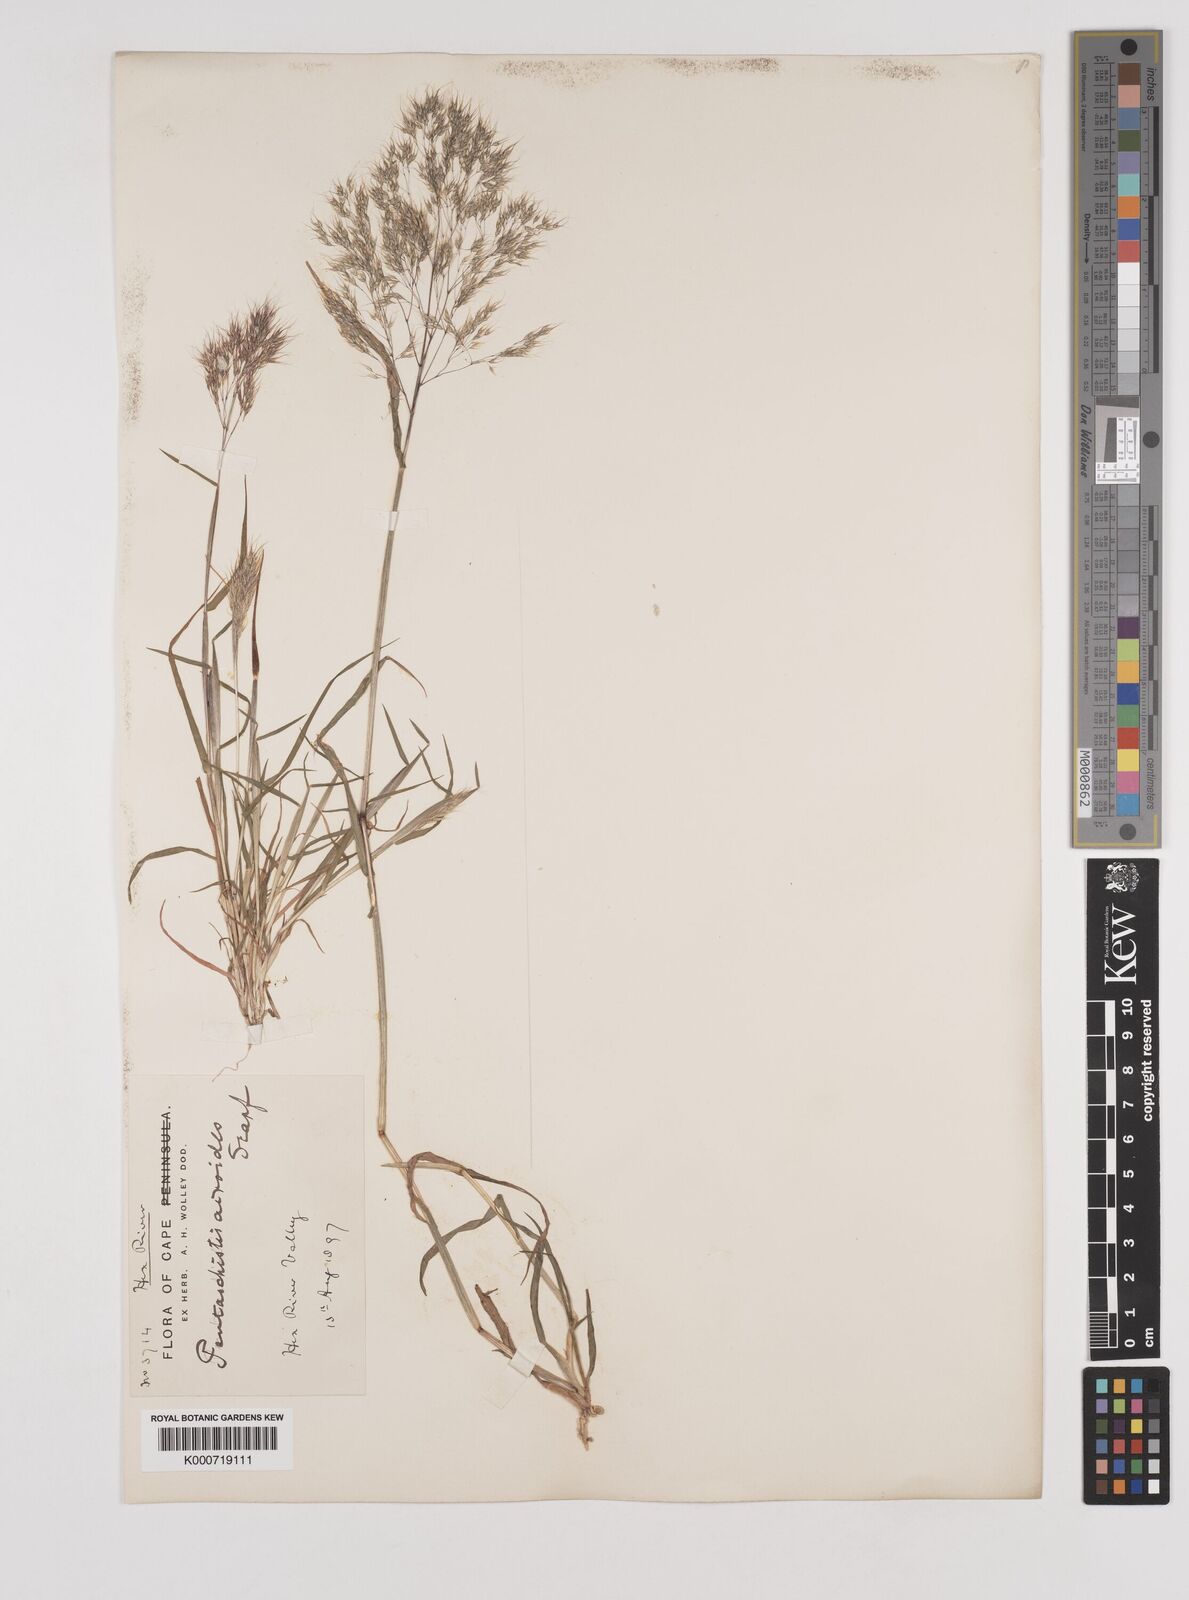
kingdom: Plantae
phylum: Tracheophyta
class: Liliopsida
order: Poales
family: Poaceae
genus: Pentameris
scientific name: Pentameris airoides
